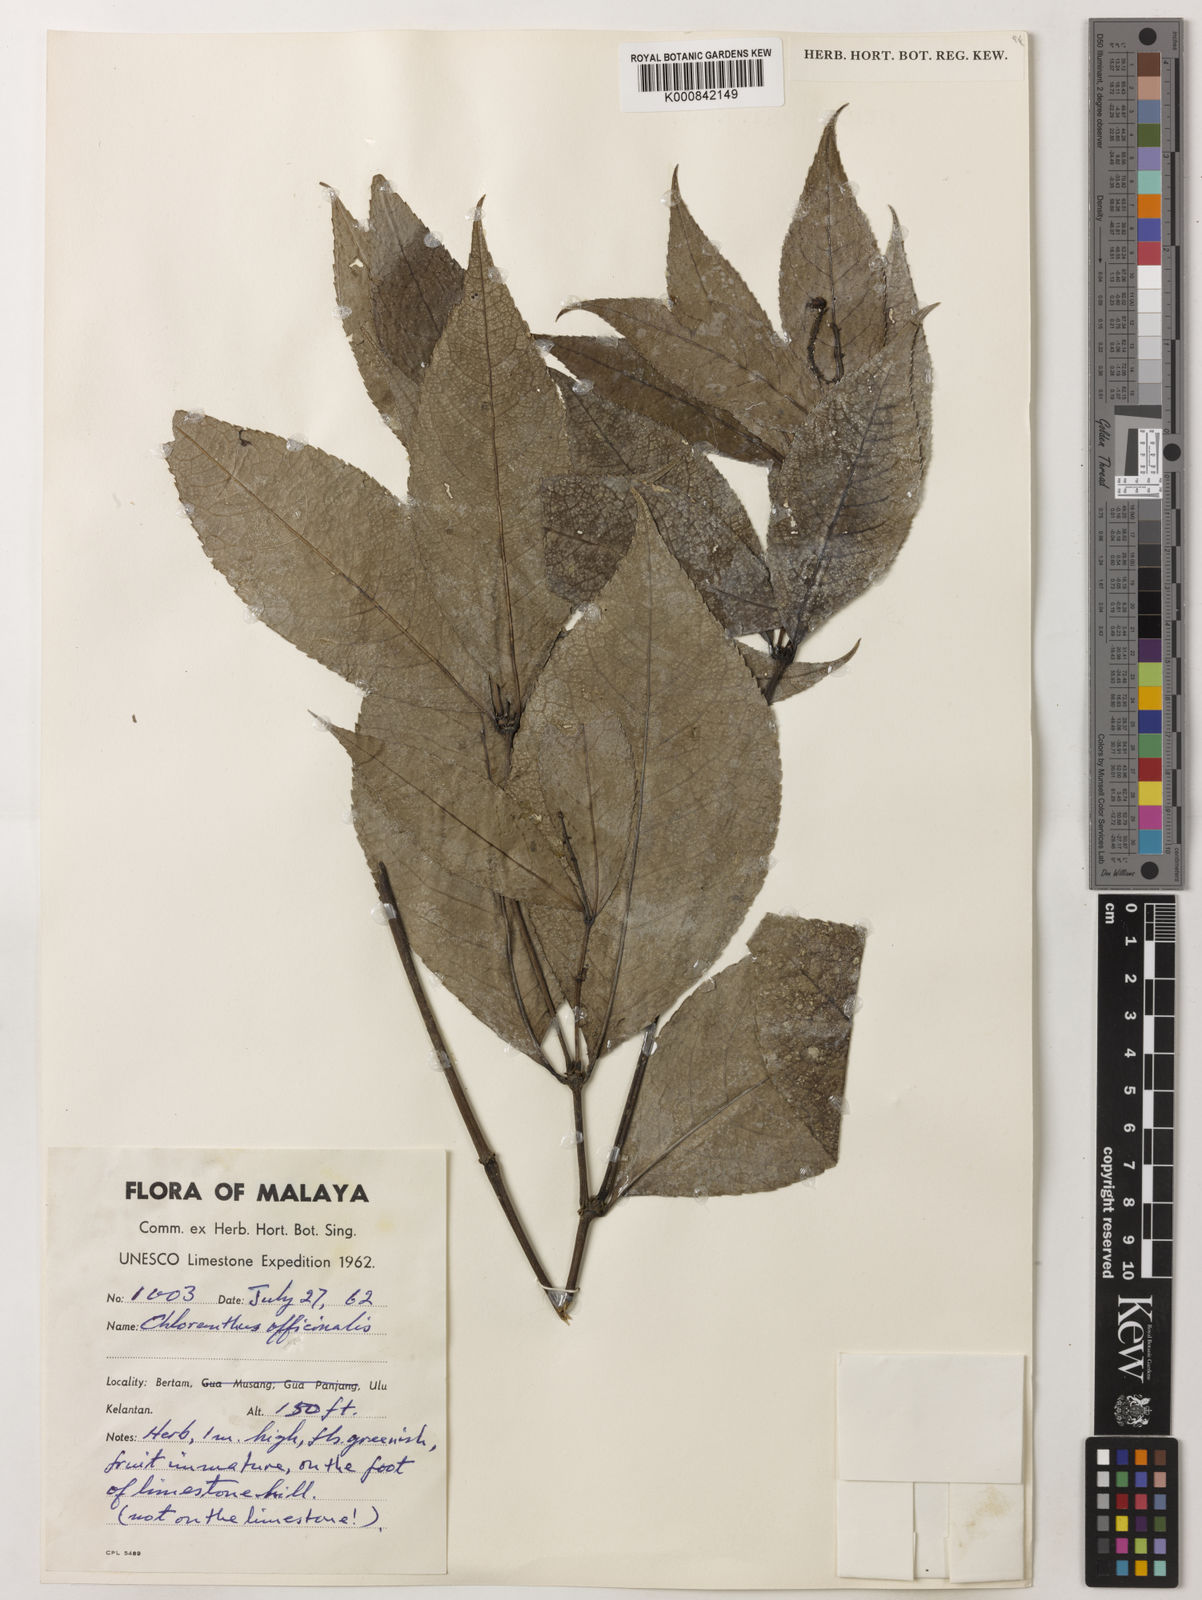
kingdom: Plantae
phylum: Tracheophyta
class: Magnoliopsida
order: Chloranthales
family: Chloranthaceae
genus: Chloranthus
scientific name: Chloranthus
